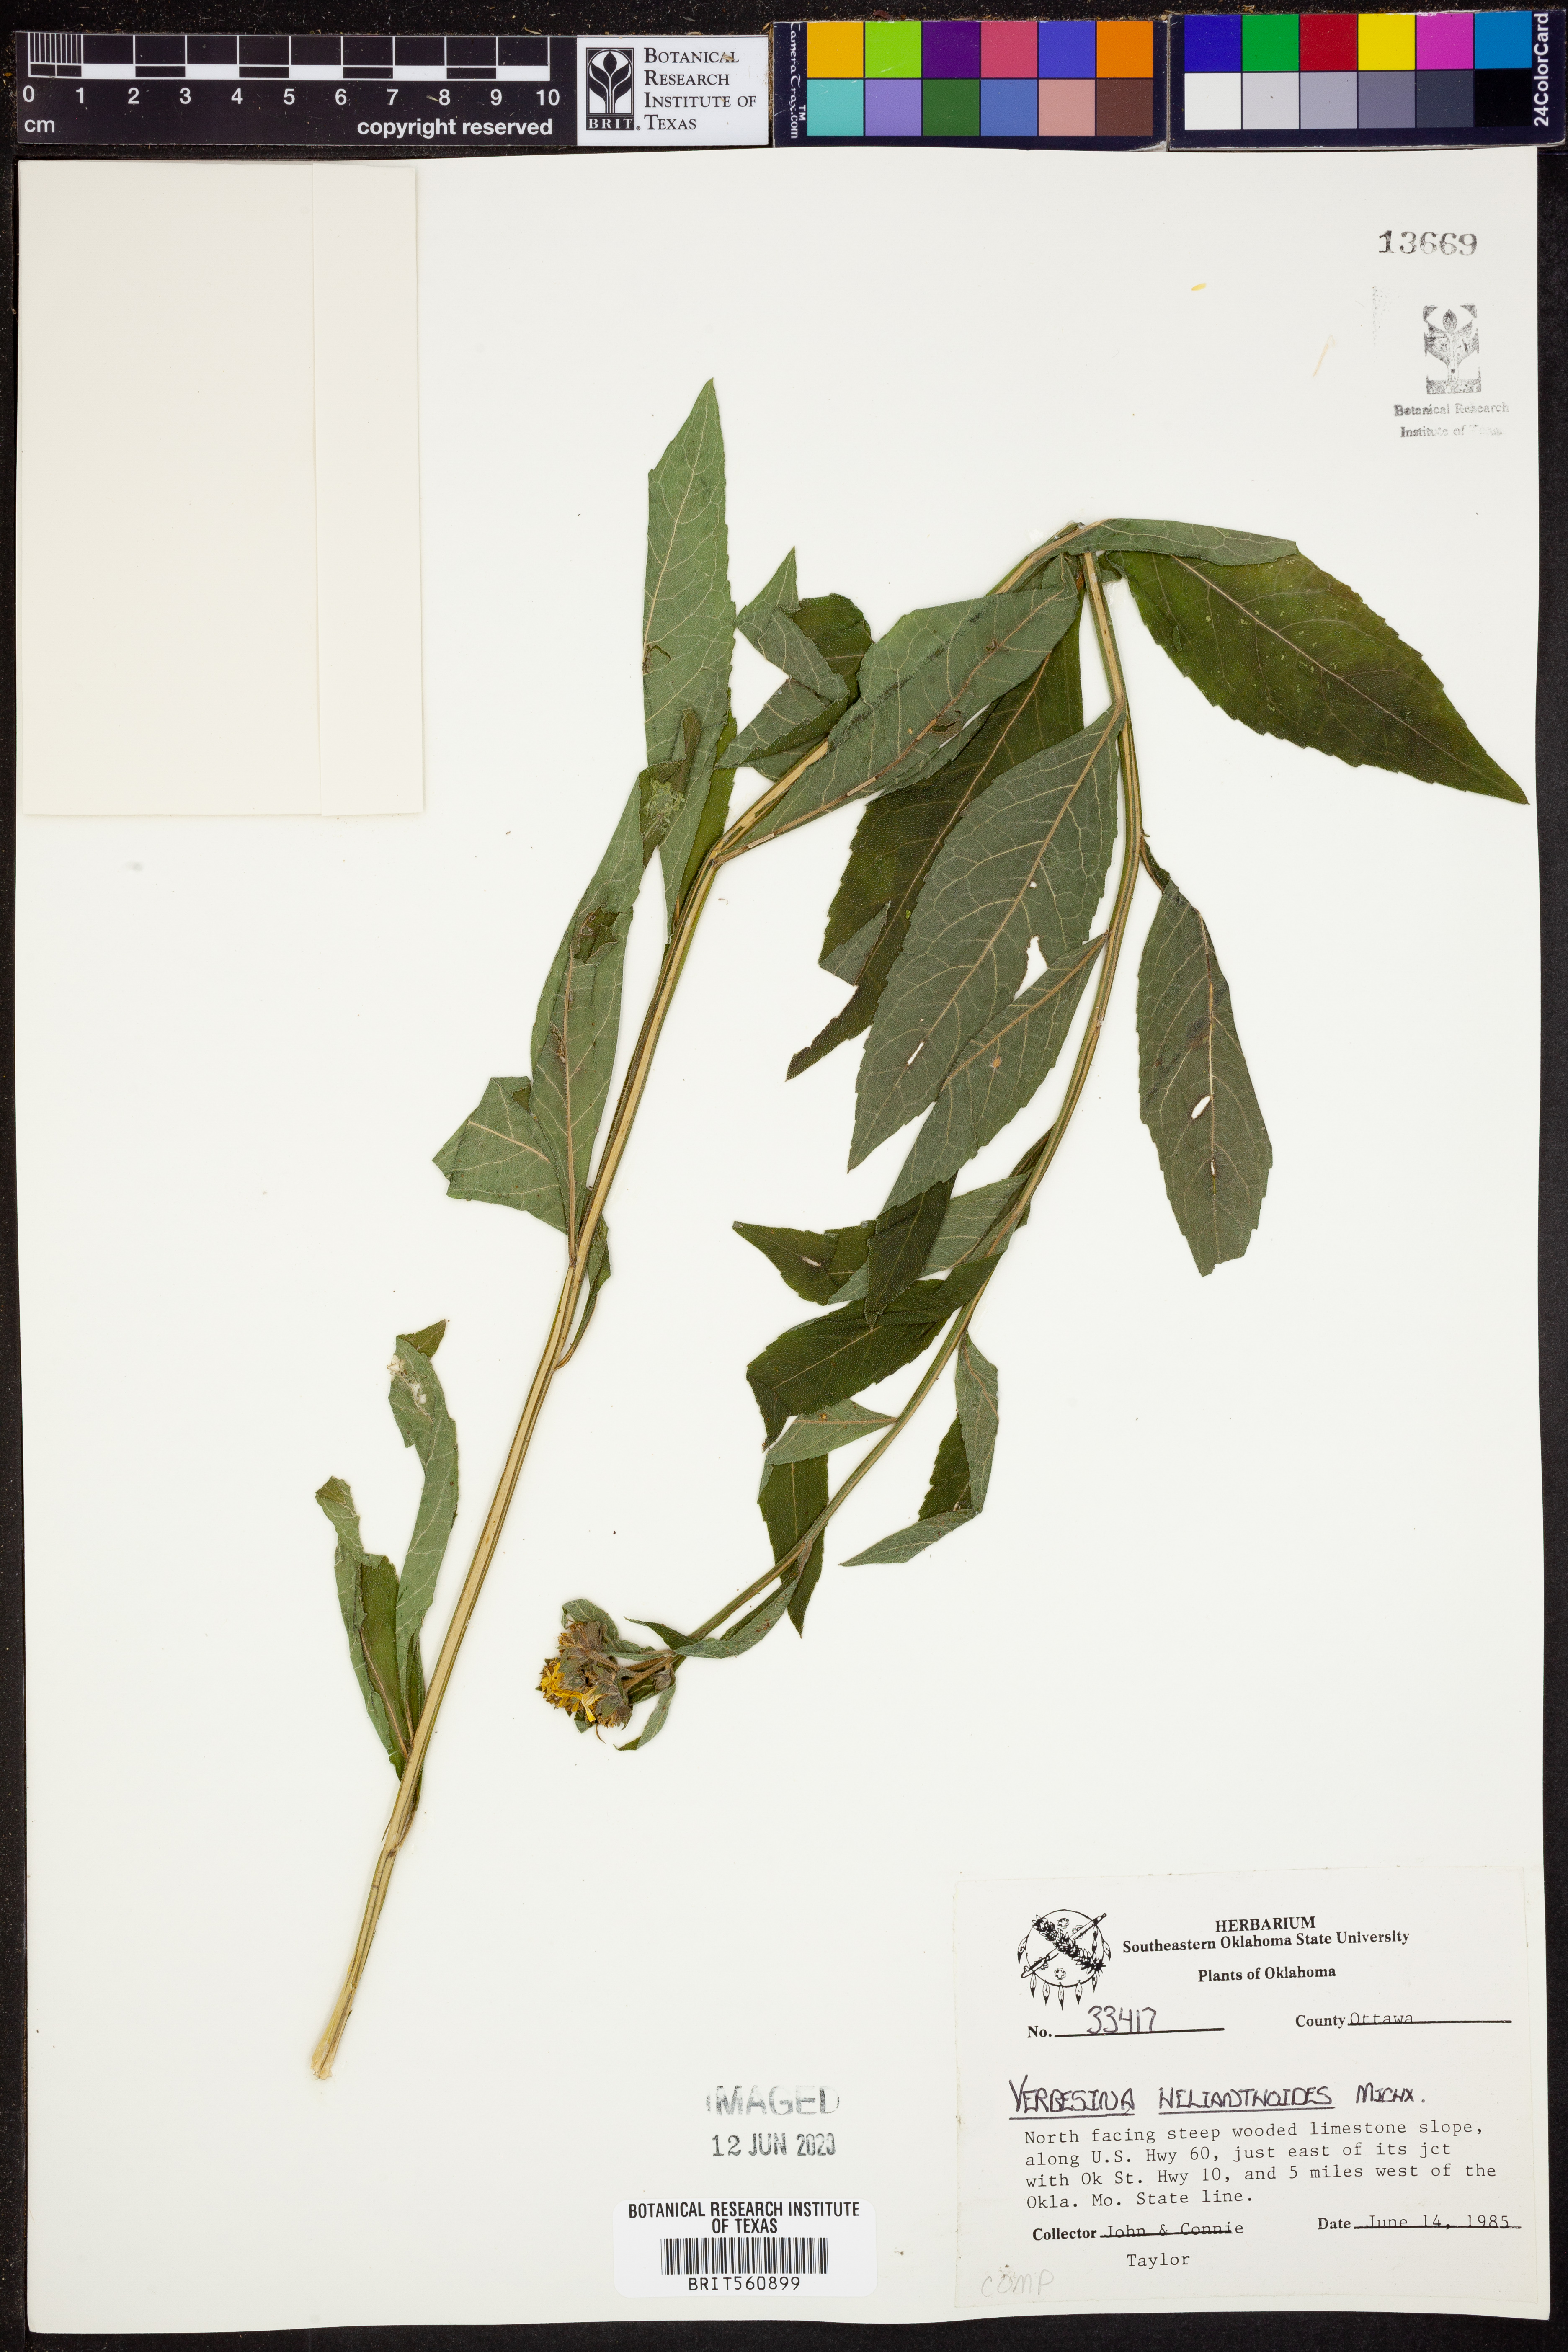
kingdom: Plantae
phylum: Tracheophyta
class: Magnoliopsida
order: Asterales
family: Asteraceae
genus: Verbesina
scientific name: Verbesina helianthoides
